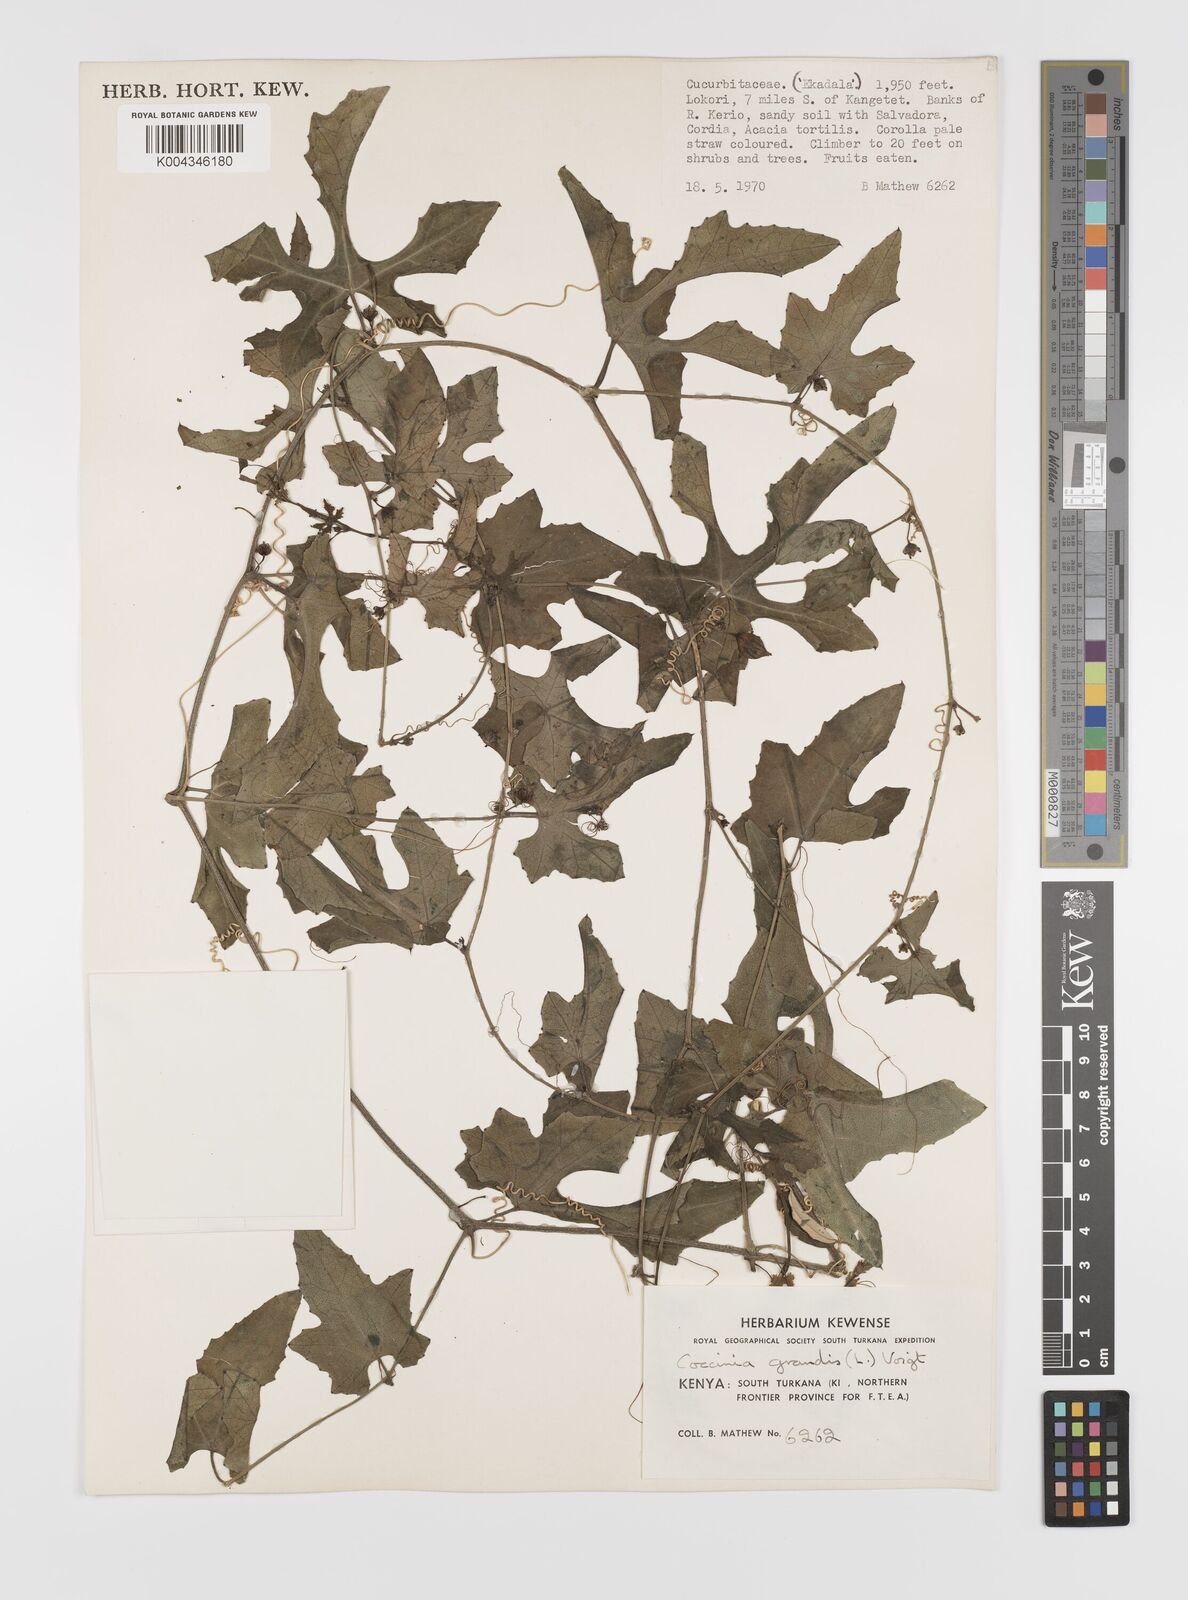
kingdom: Plantae
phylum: Tracheophyta
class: Magnoliopsida
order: Cucurbitales
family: Cucurbitaceae
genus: Coccinia
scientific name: Coccinia grandis
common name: Ivy gourd
